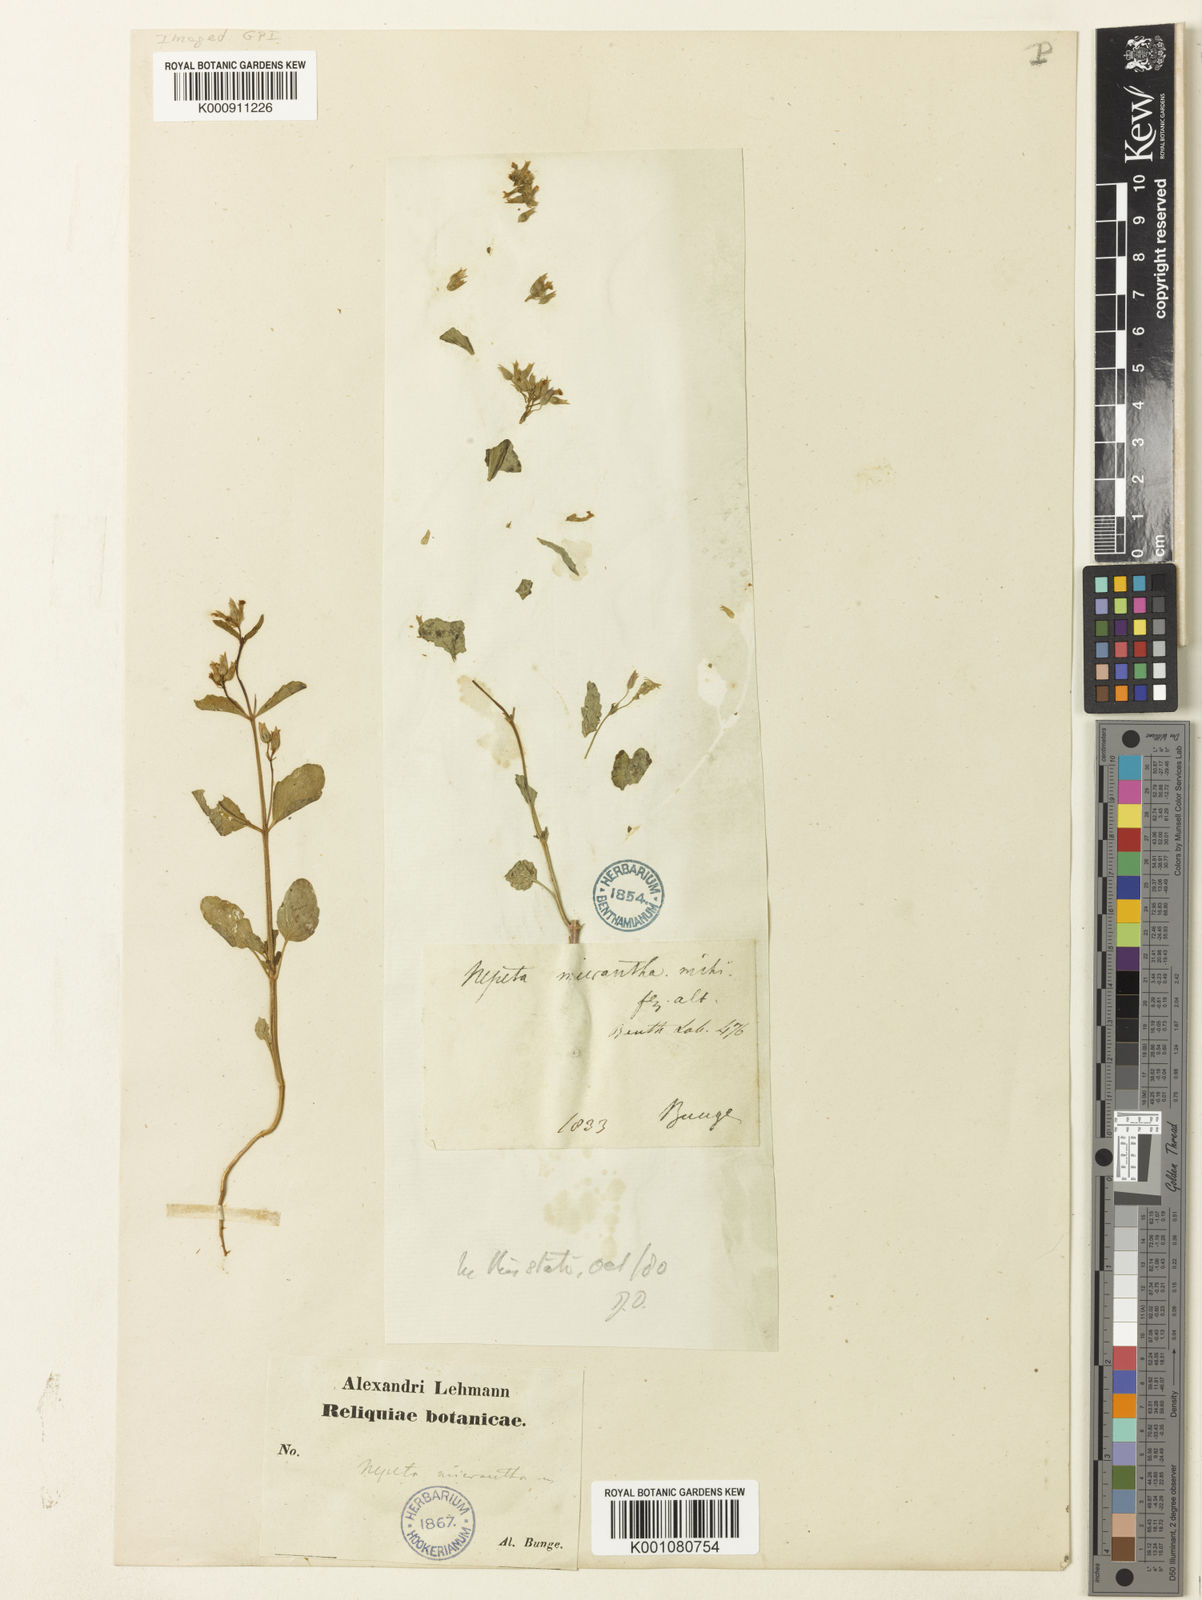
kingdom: Plantae
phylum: Tracheophyta
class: Magnoliopsida
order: Lamiales
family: Lamiaceae
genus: Nepeta
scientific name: Nepeta micrantha
